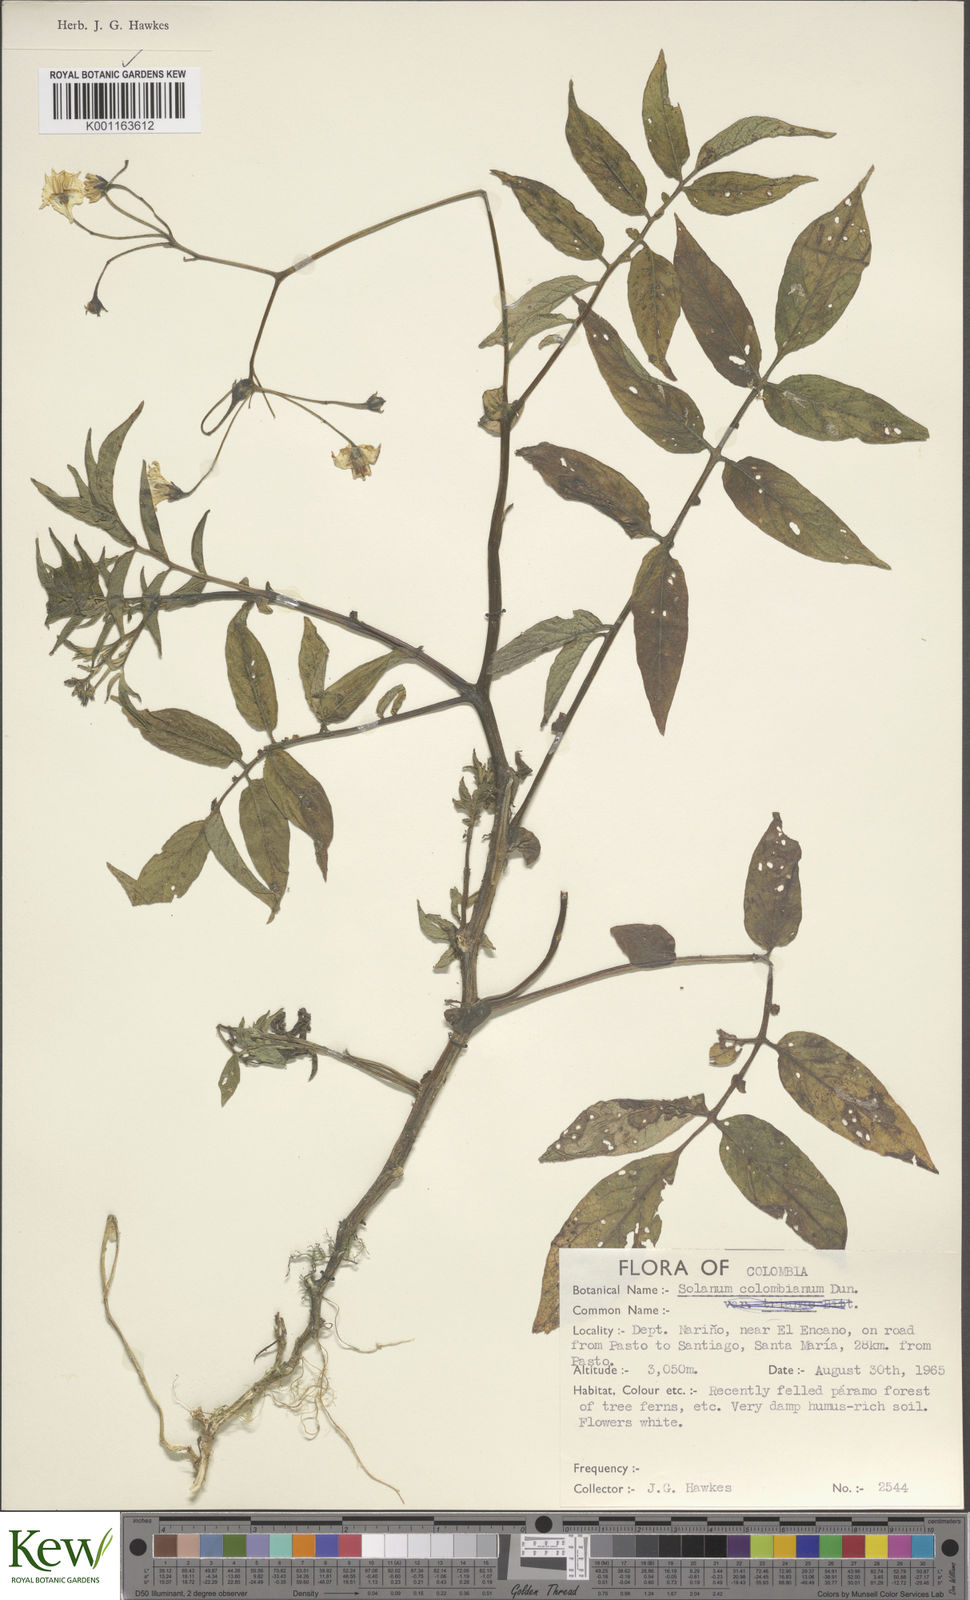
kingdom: Plantae
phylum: Tracheophyta
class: Magnoliopsida
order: Solanales
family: Solanaceae
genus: Solanum
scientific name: Solanum colombianum
